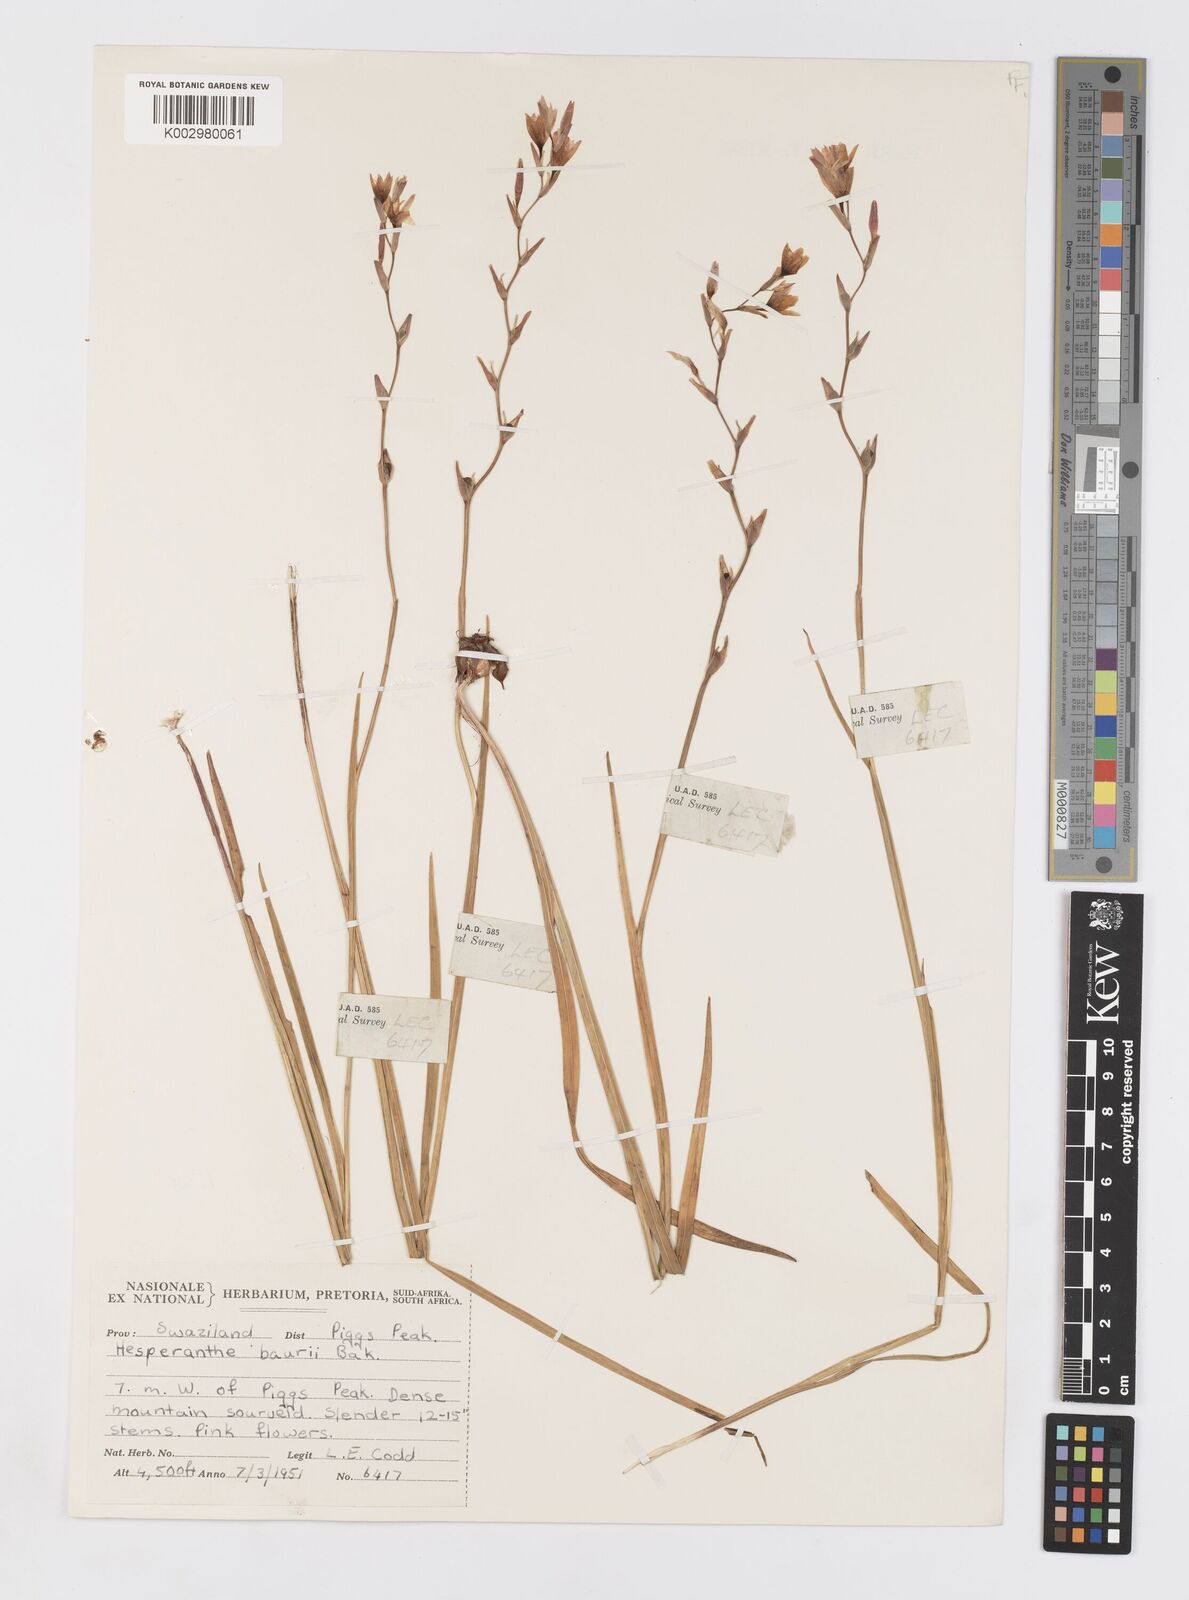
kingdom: Plantae
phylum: Tracheophyta
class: Liliopsida
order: Asparagales
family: Iridaceae
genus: Hesperantha
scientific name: Hesperantha baurii
